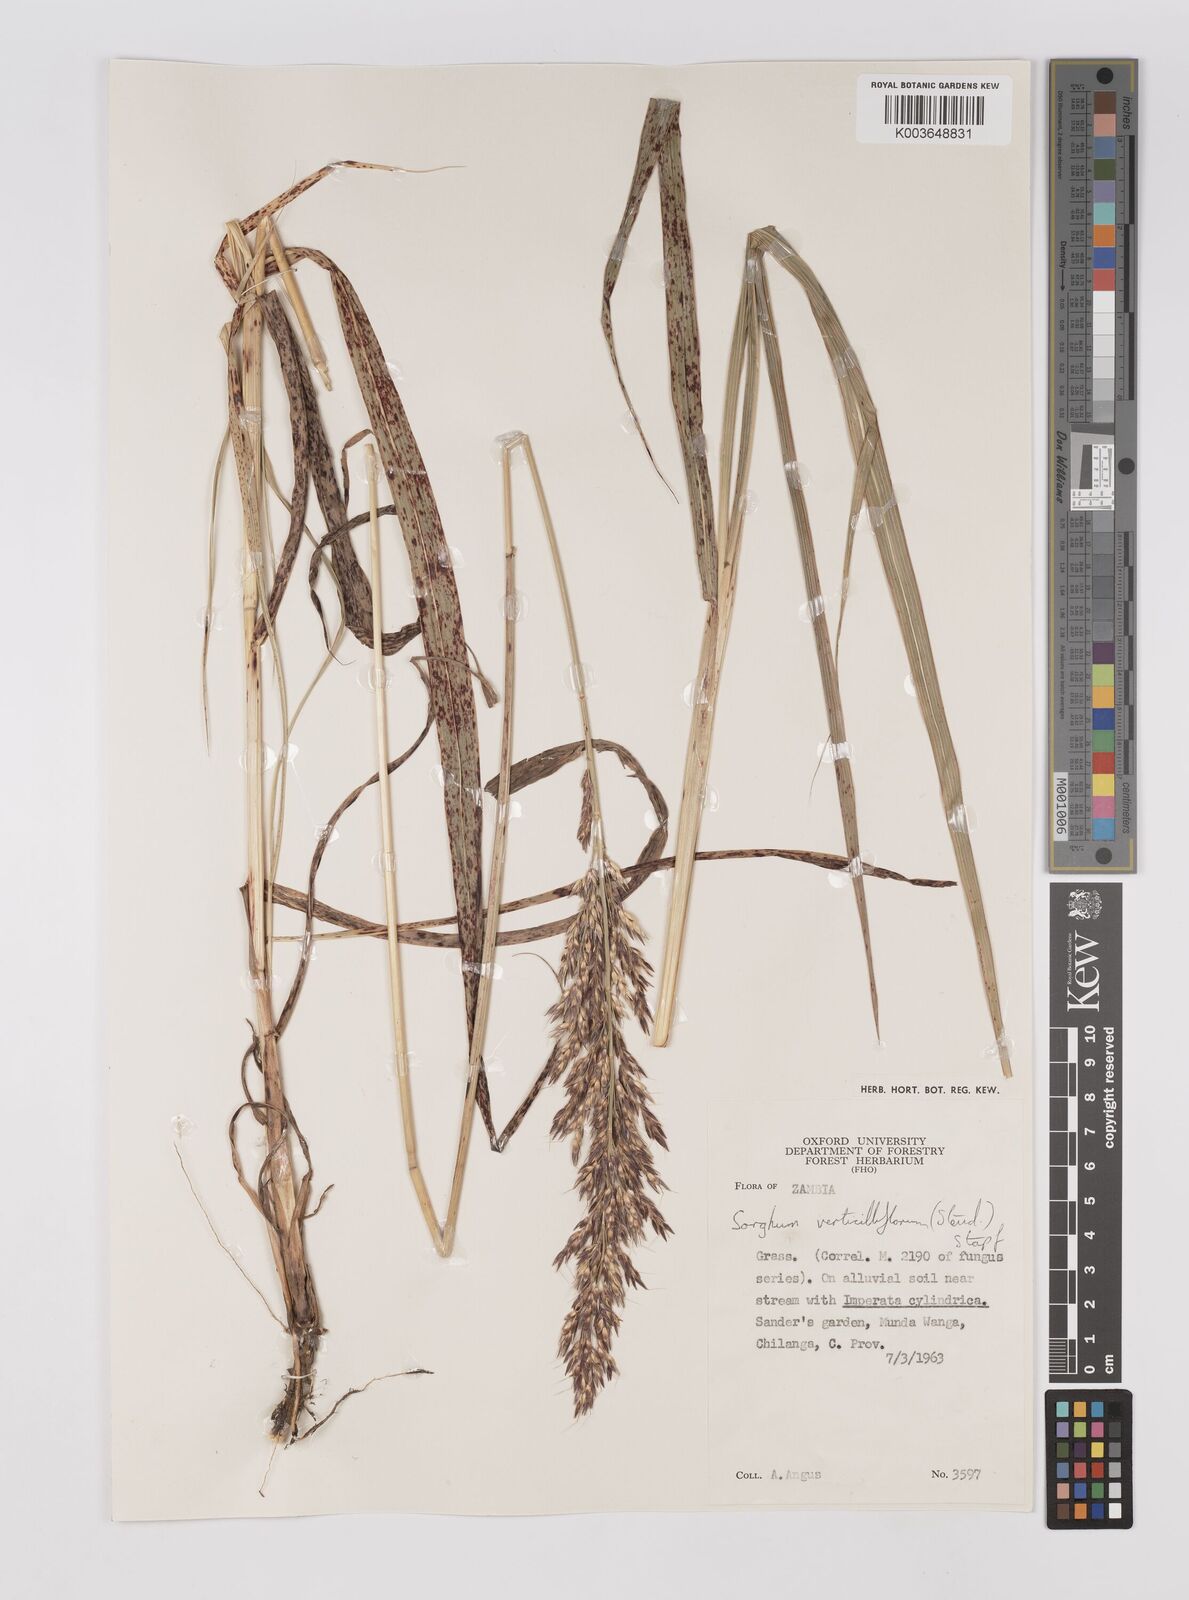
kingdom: Plantae
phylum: Tracheophyta
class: Liliopsida
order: Poales
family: Poaceae
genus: Sorghum
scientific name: Sorghum arundinaceum
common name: Sorghum
